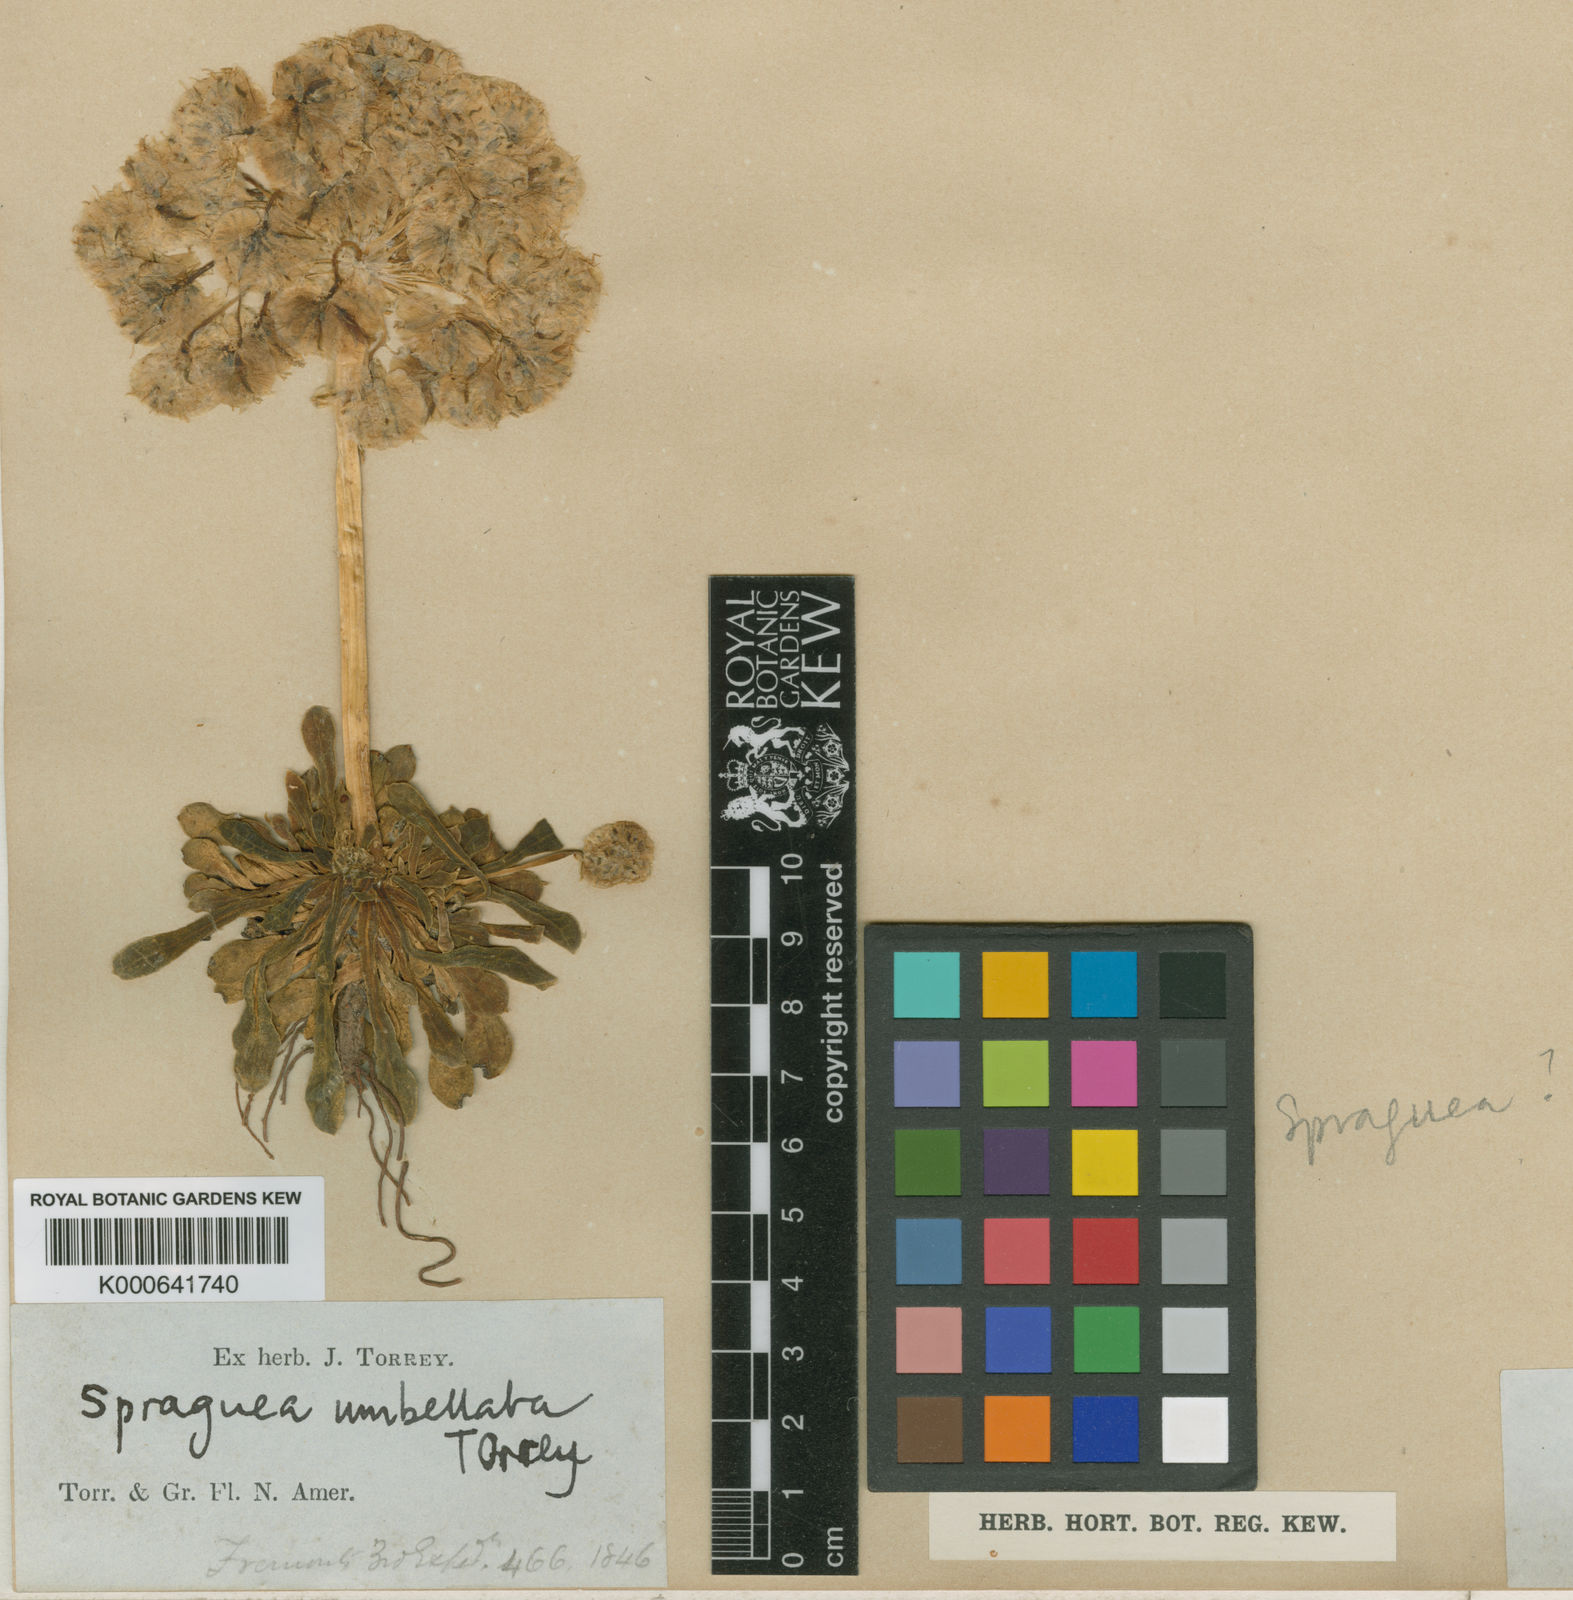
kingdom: Plantae
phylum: Tracheophyta
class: Magnoliopsida
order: Caryophyllales
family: Montiaceae
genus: Calyptridium
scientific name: Calyptridium umbellatum
